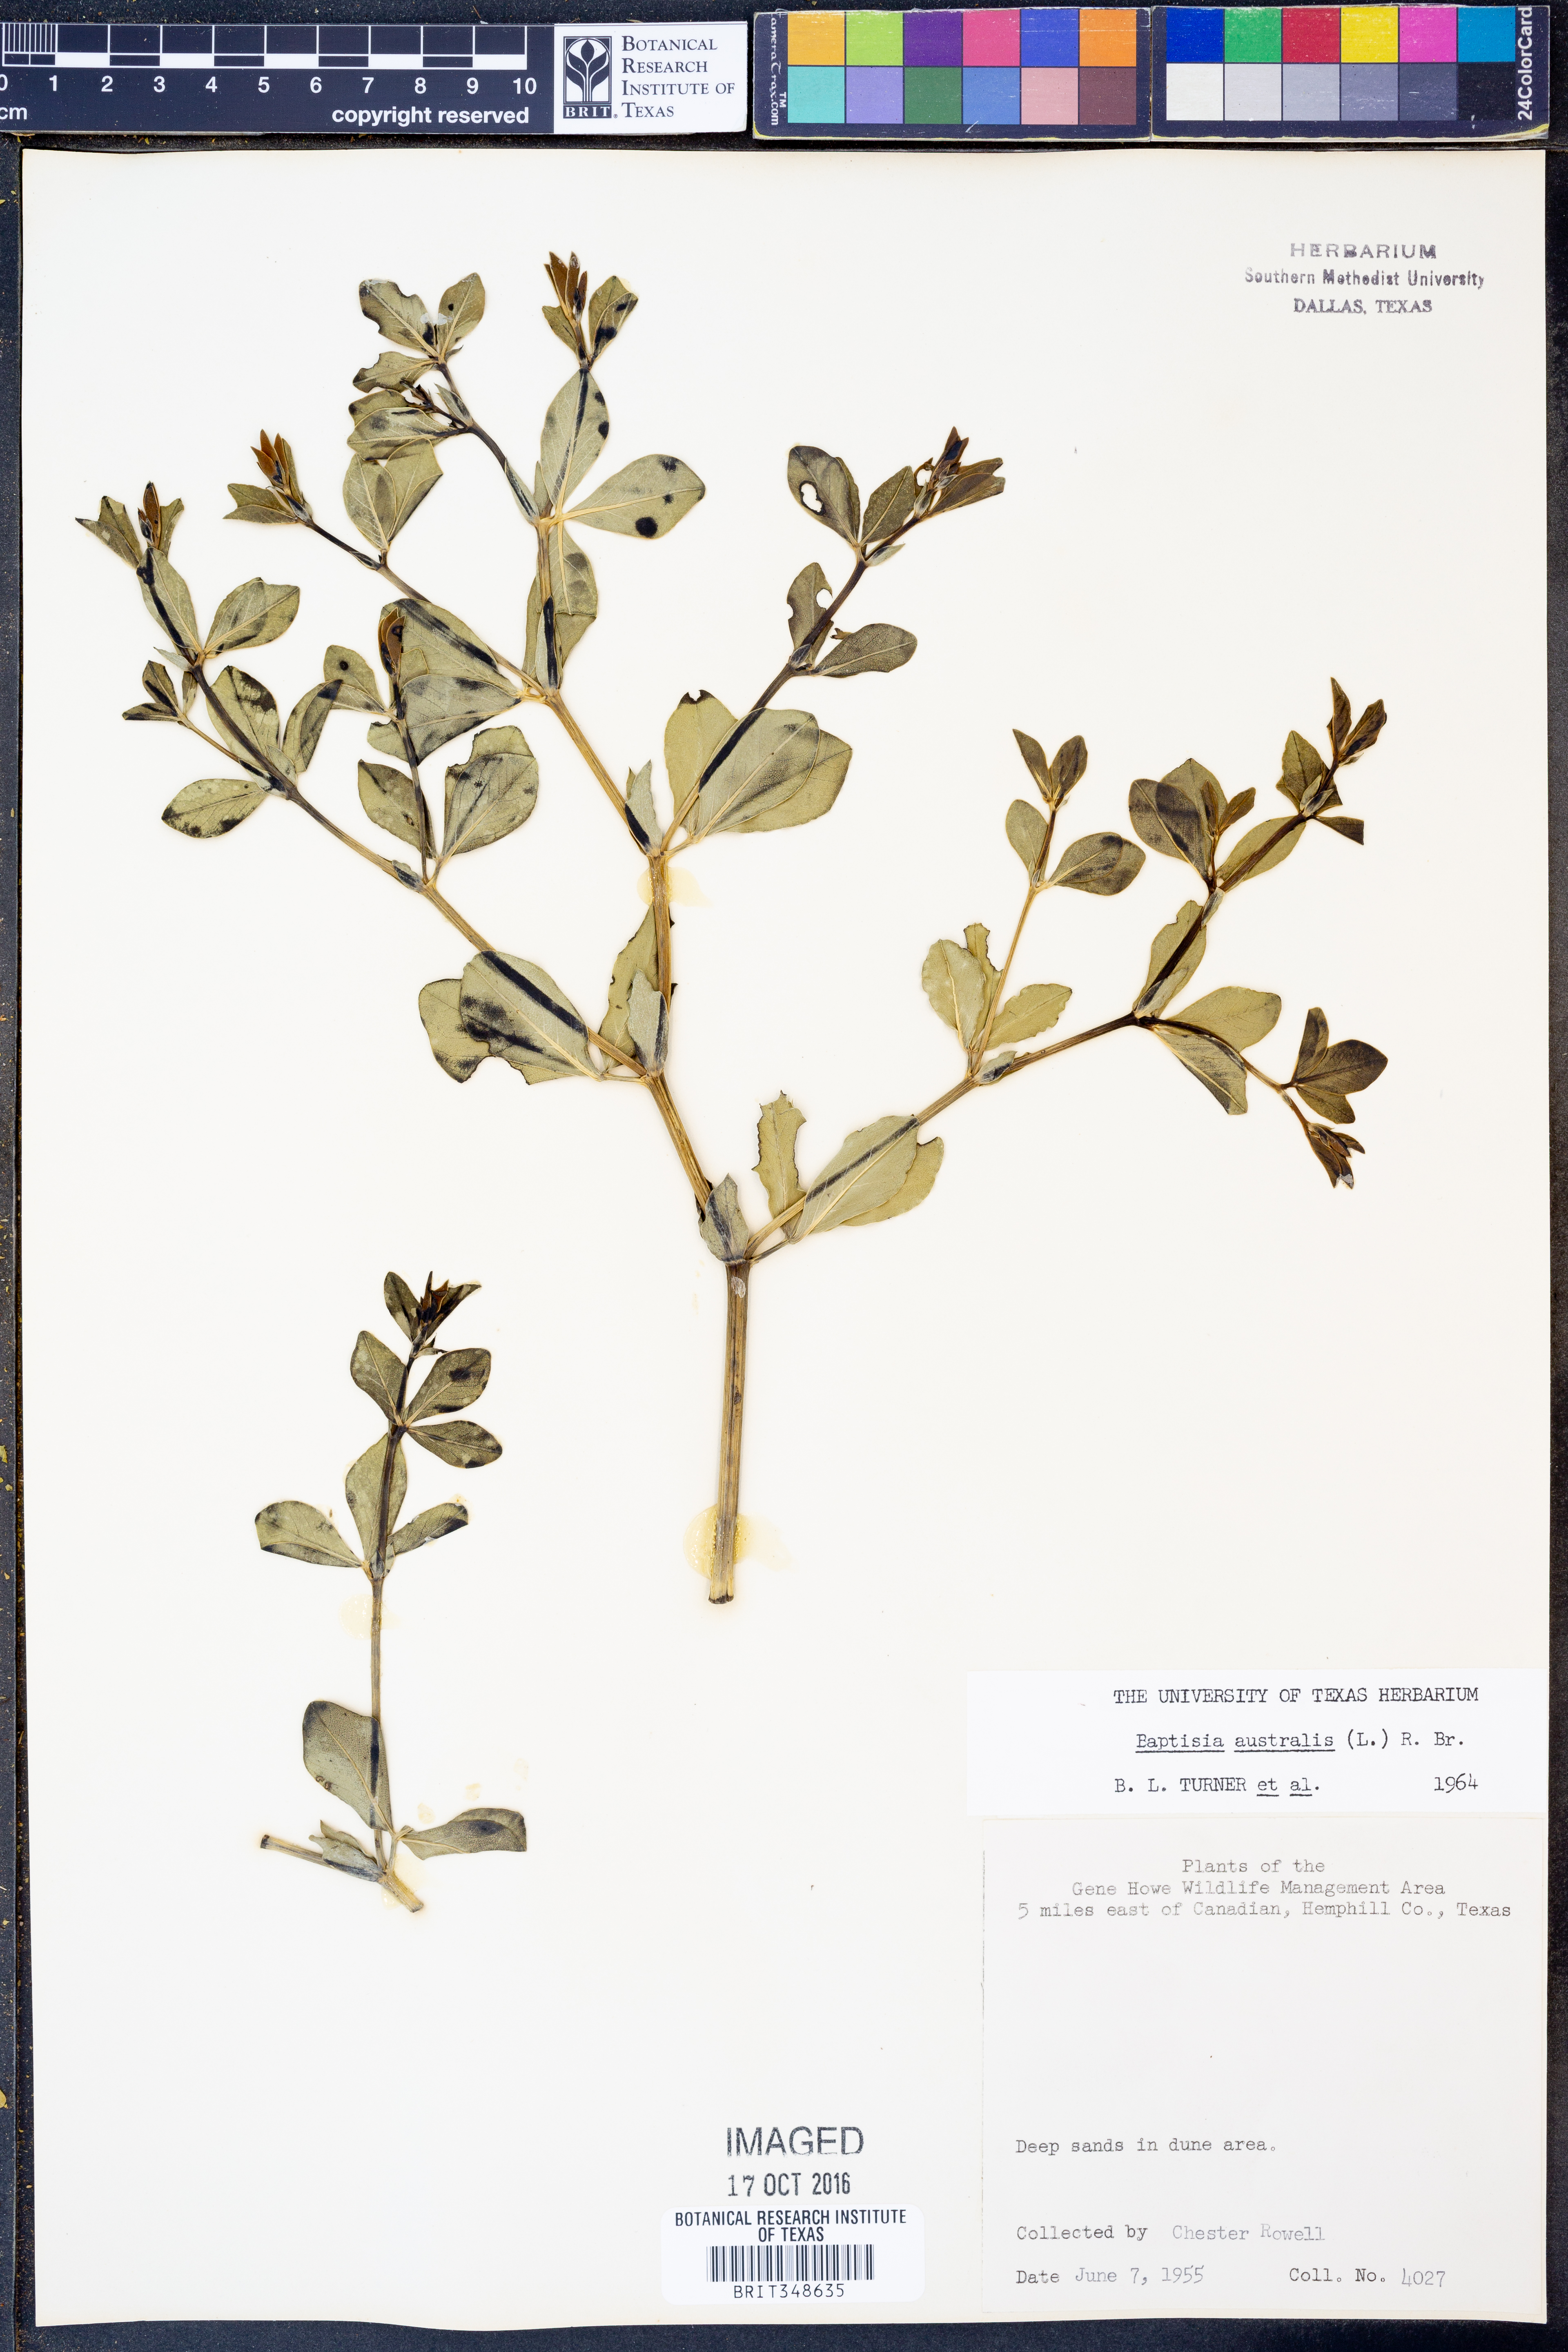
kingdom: Plantae
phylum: Tracheophyta
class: Magnoliopsida
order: Fabales
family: Fabaceae
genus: Baptisia
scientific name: Baptisia australis
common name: Blue false indigo
